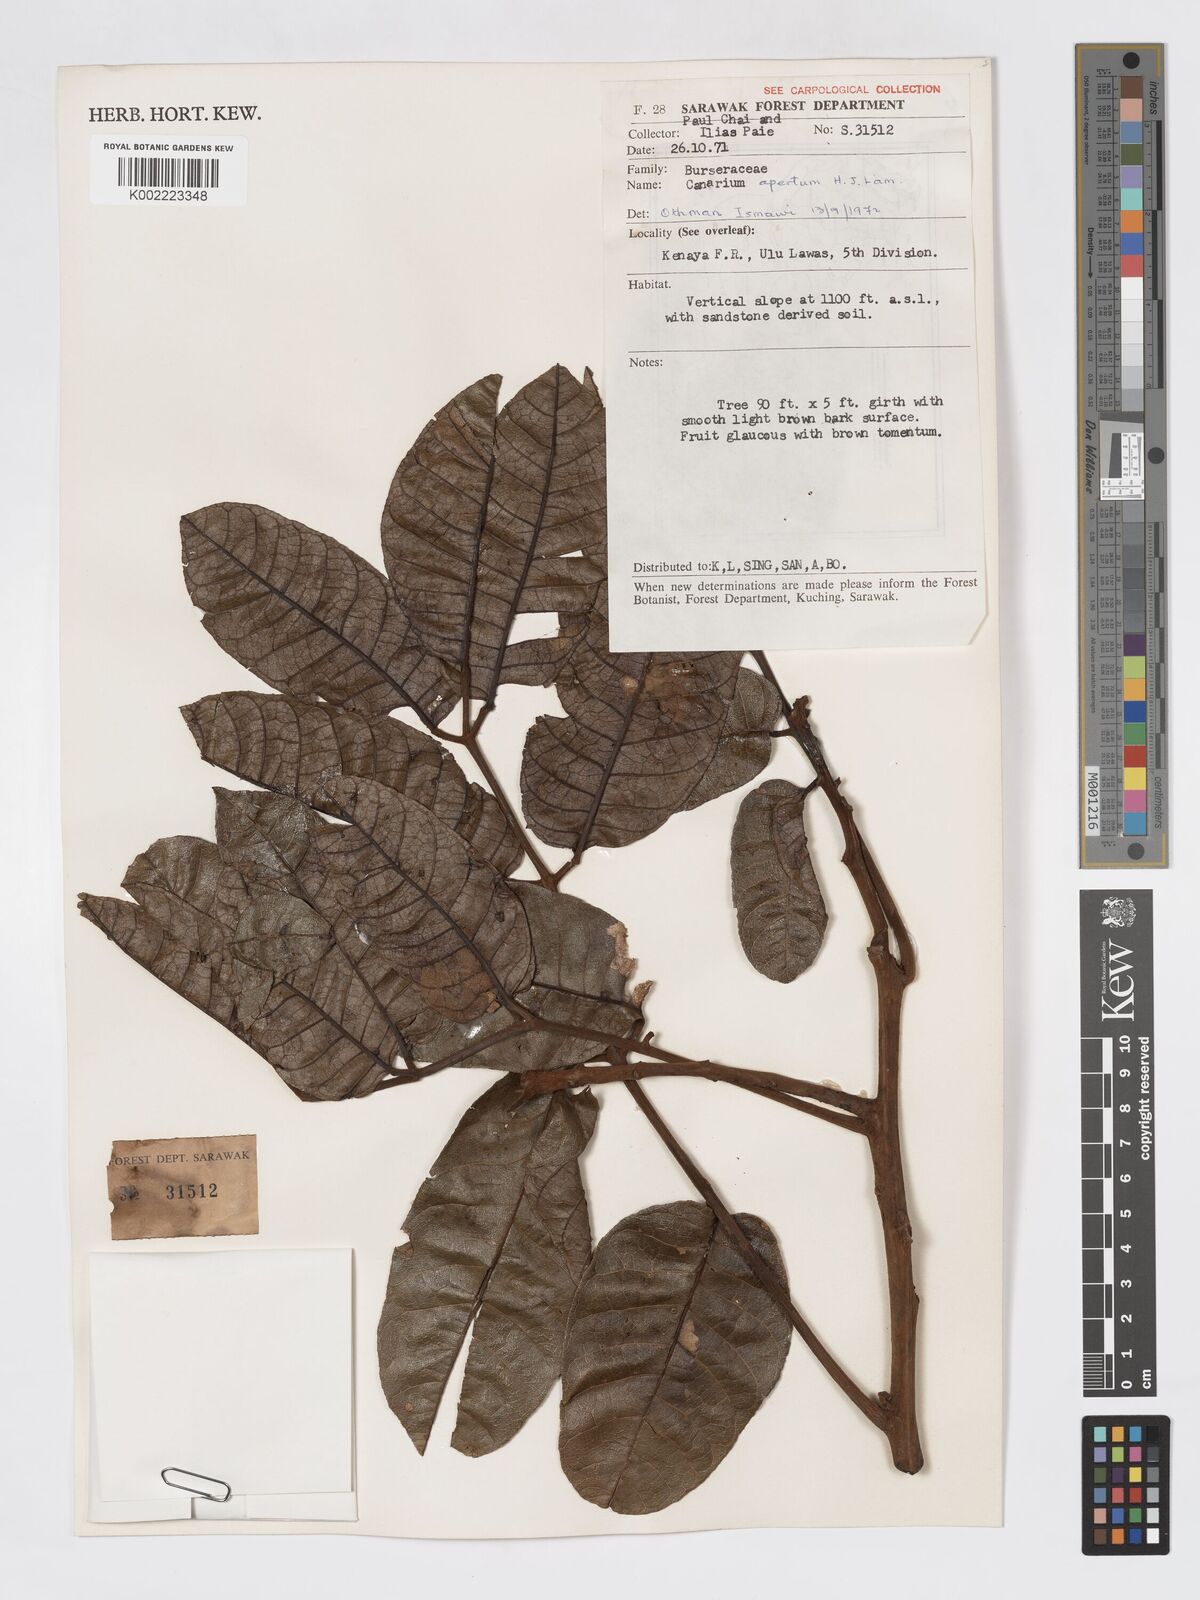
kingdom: Plantae
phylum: Tracheophyta
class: Magnoliopsida
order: Sapindales
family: Burseraceae
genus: Canarium
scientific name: Canarium apertum
